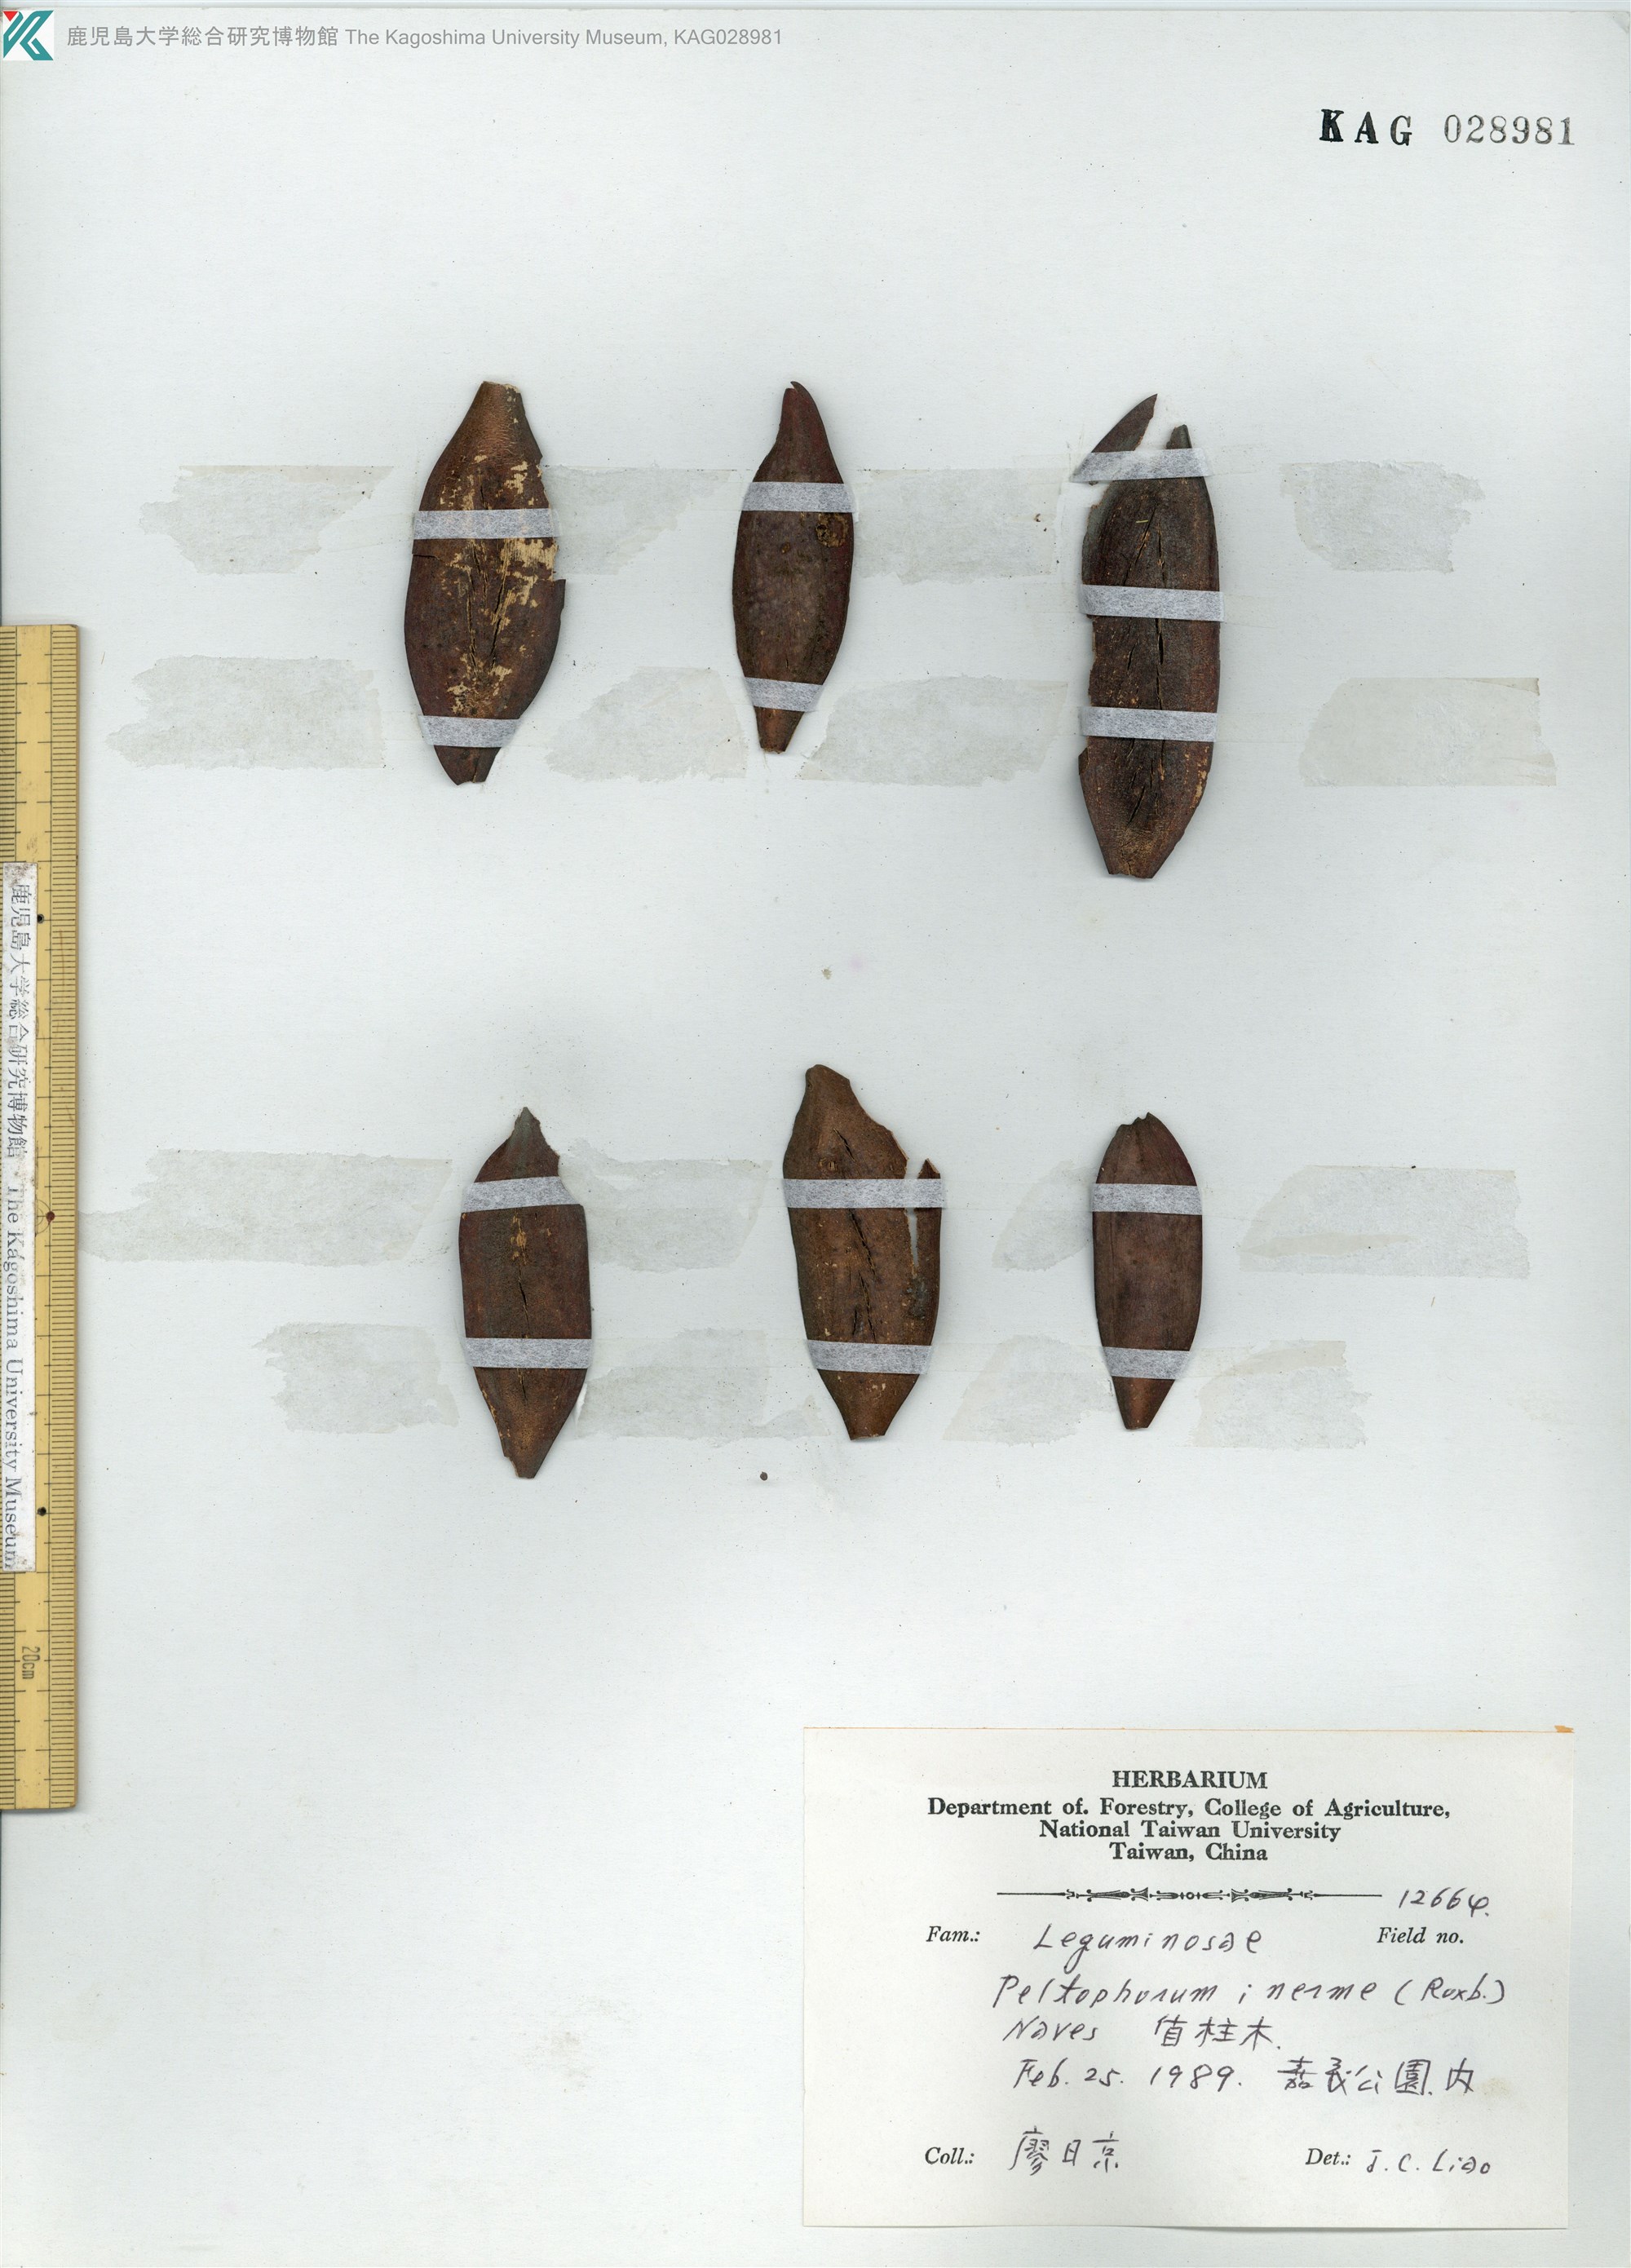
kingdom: Plantae
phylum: Tracheophyta
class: Magnoliopsida
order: Fabales
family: Fabaceae
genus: Peltophorum
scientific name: Peltophorum pterocarpum
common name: Yellow flame
